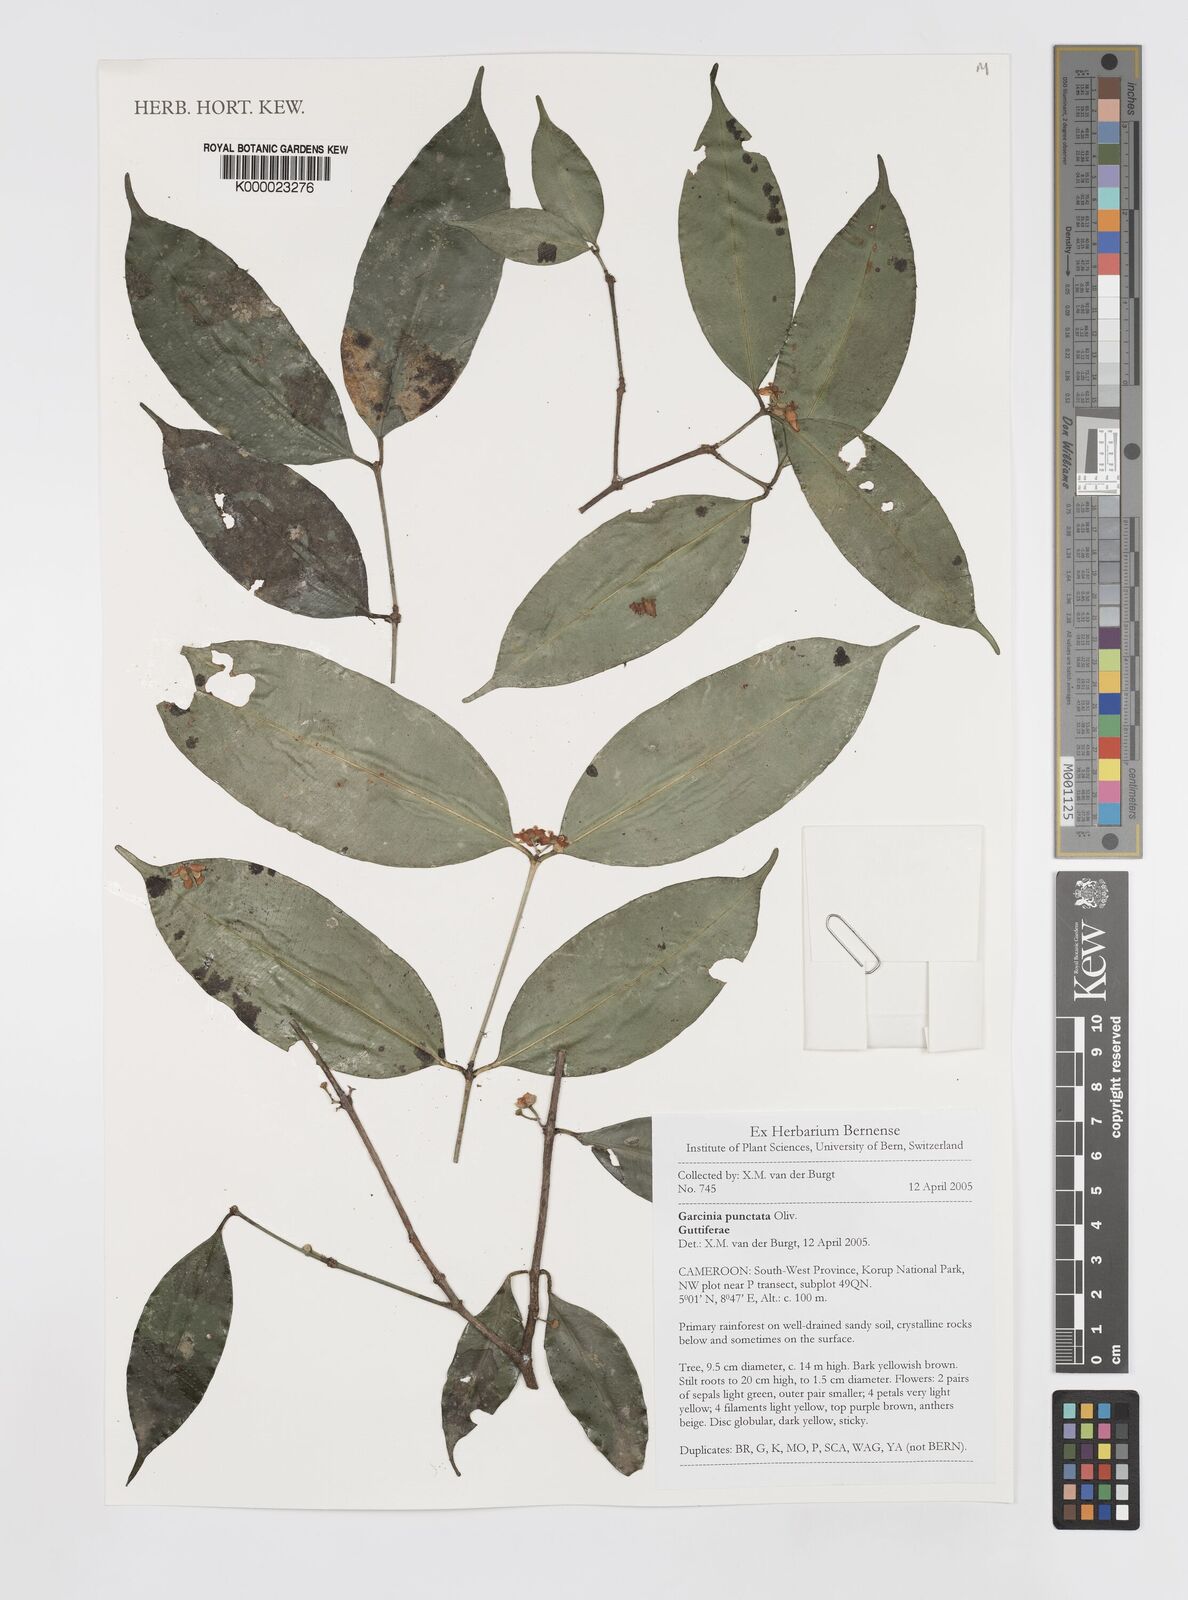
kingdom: Plantae
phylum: Tracheophyta
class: Magnoliopsida
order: Malpighiales
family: Clusiaceae
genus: Garcinia
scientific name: Garcinia punctata
